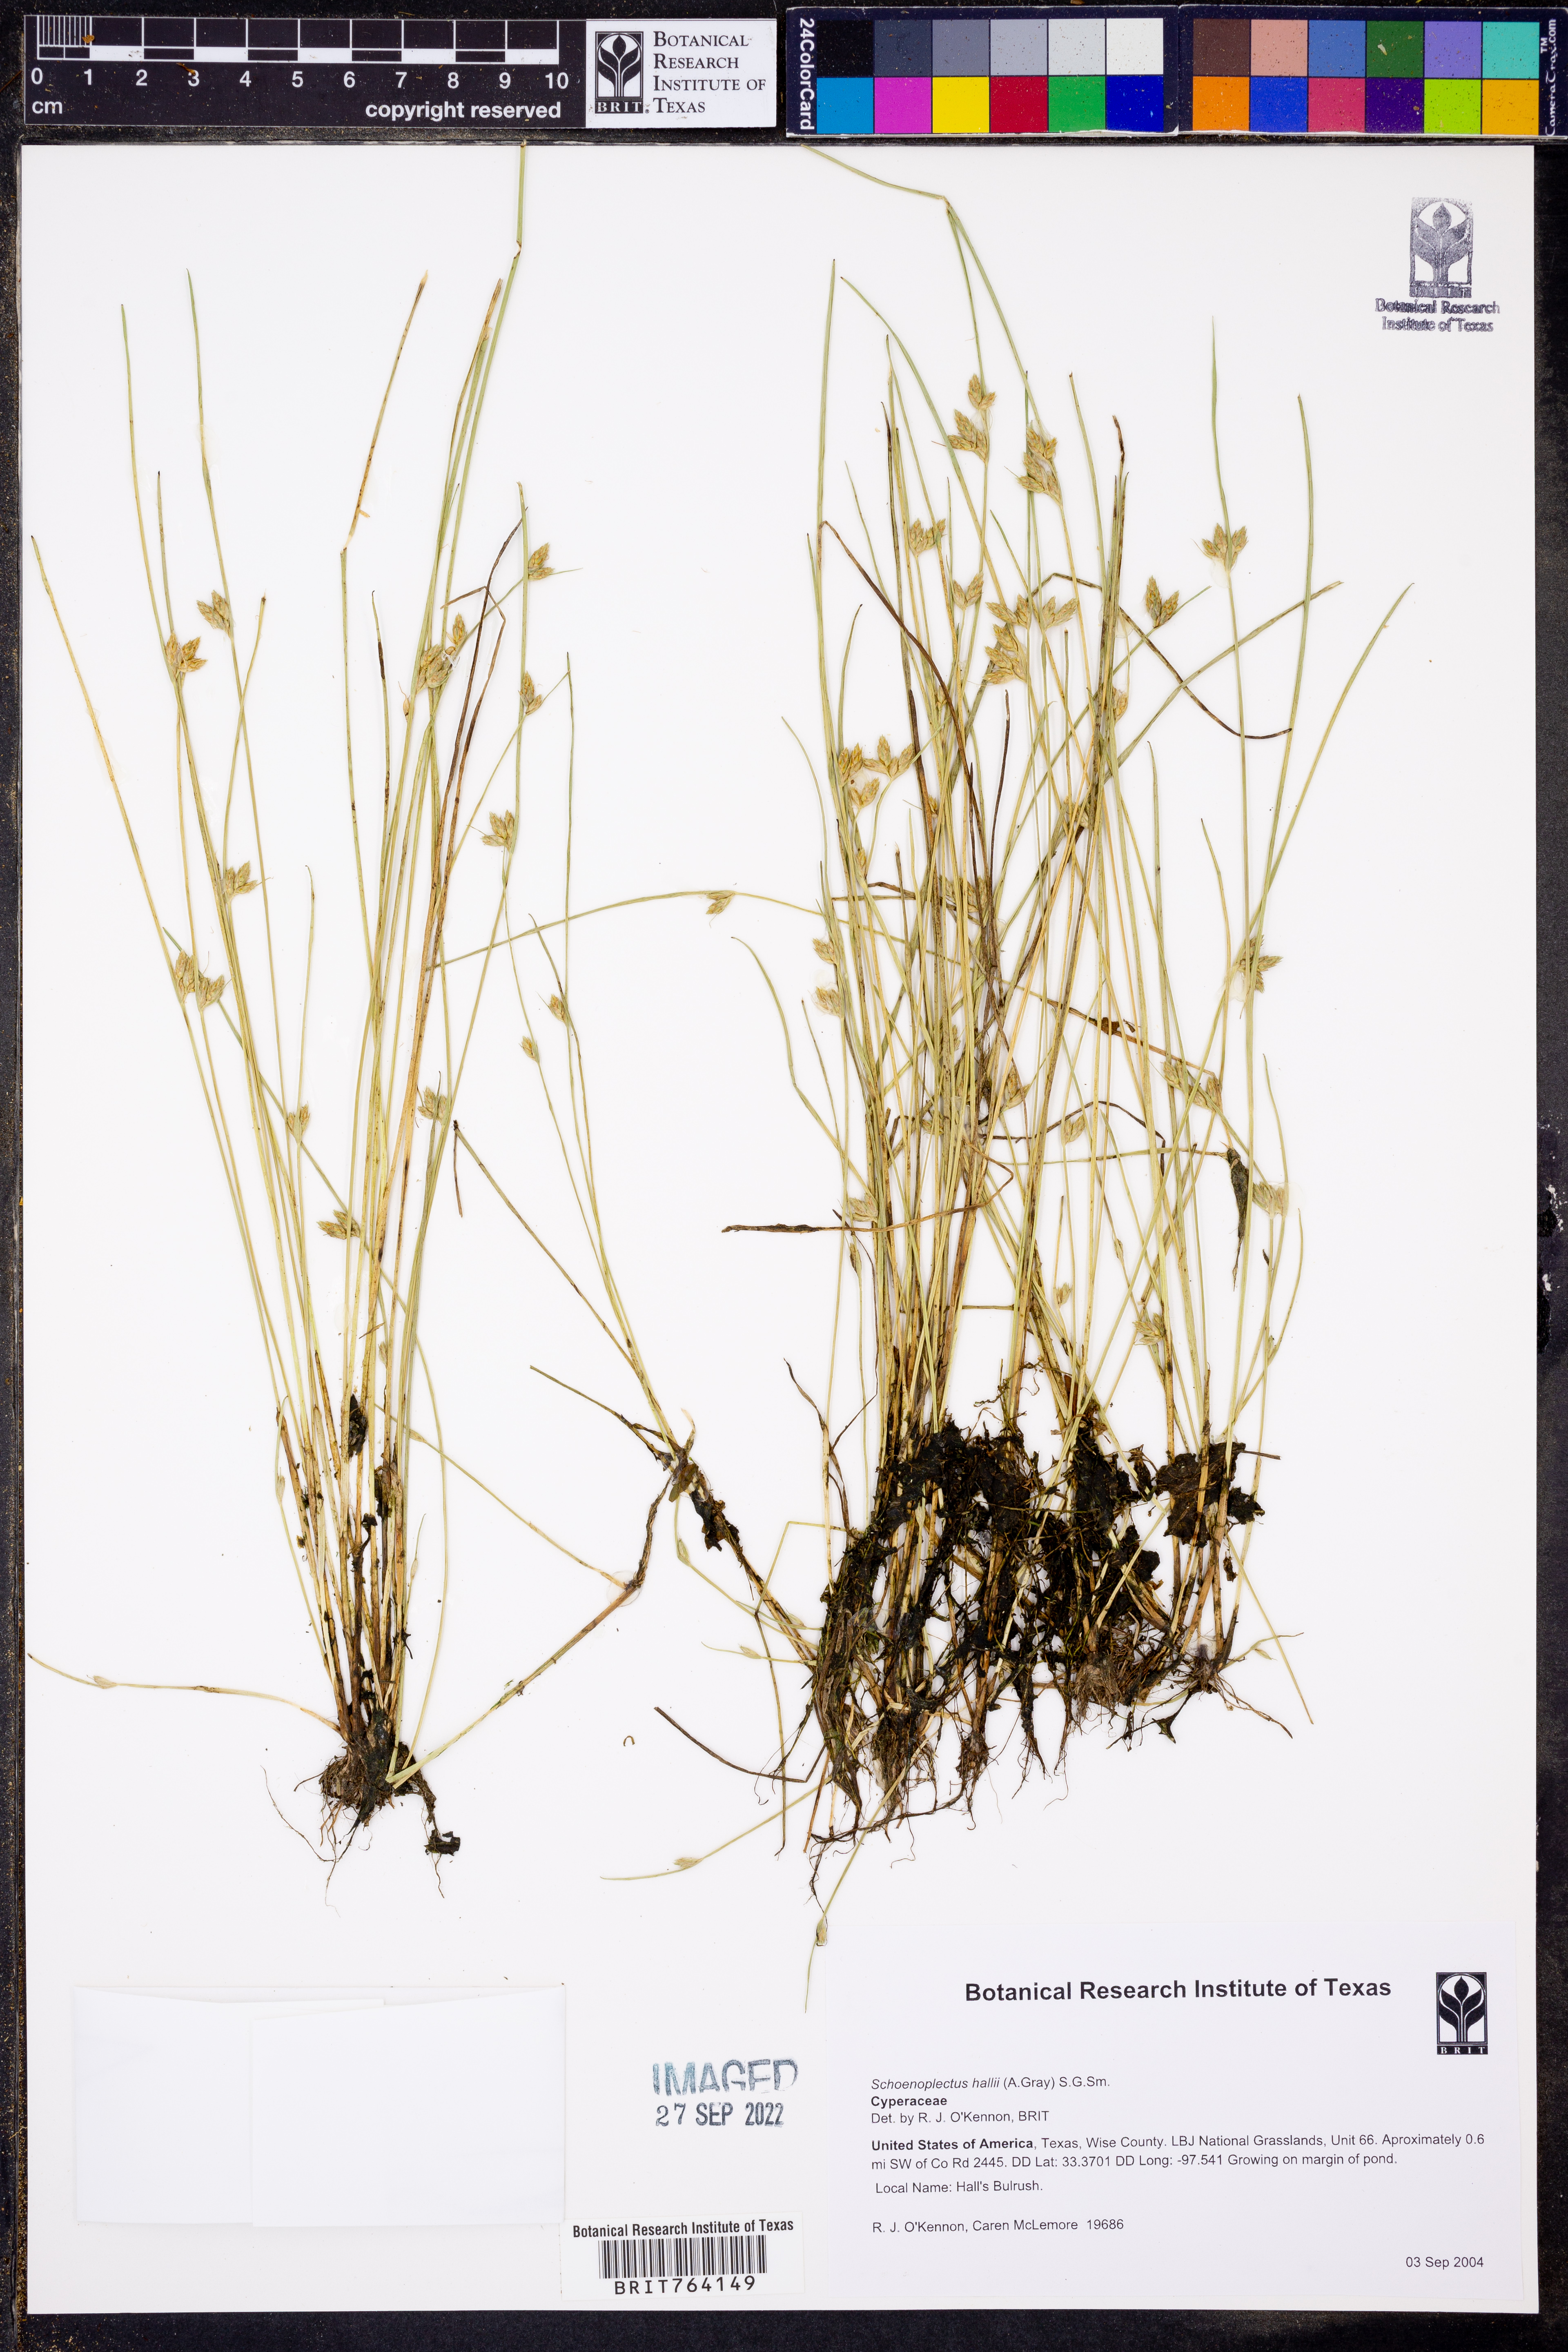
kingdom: Plantae
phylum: Tracheophyta
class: Liliopsida
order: Poales
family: Cyperaceae
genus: Schoenoplectiella
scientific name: Schoenoplectiella hallii
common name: Hall's bullrush
